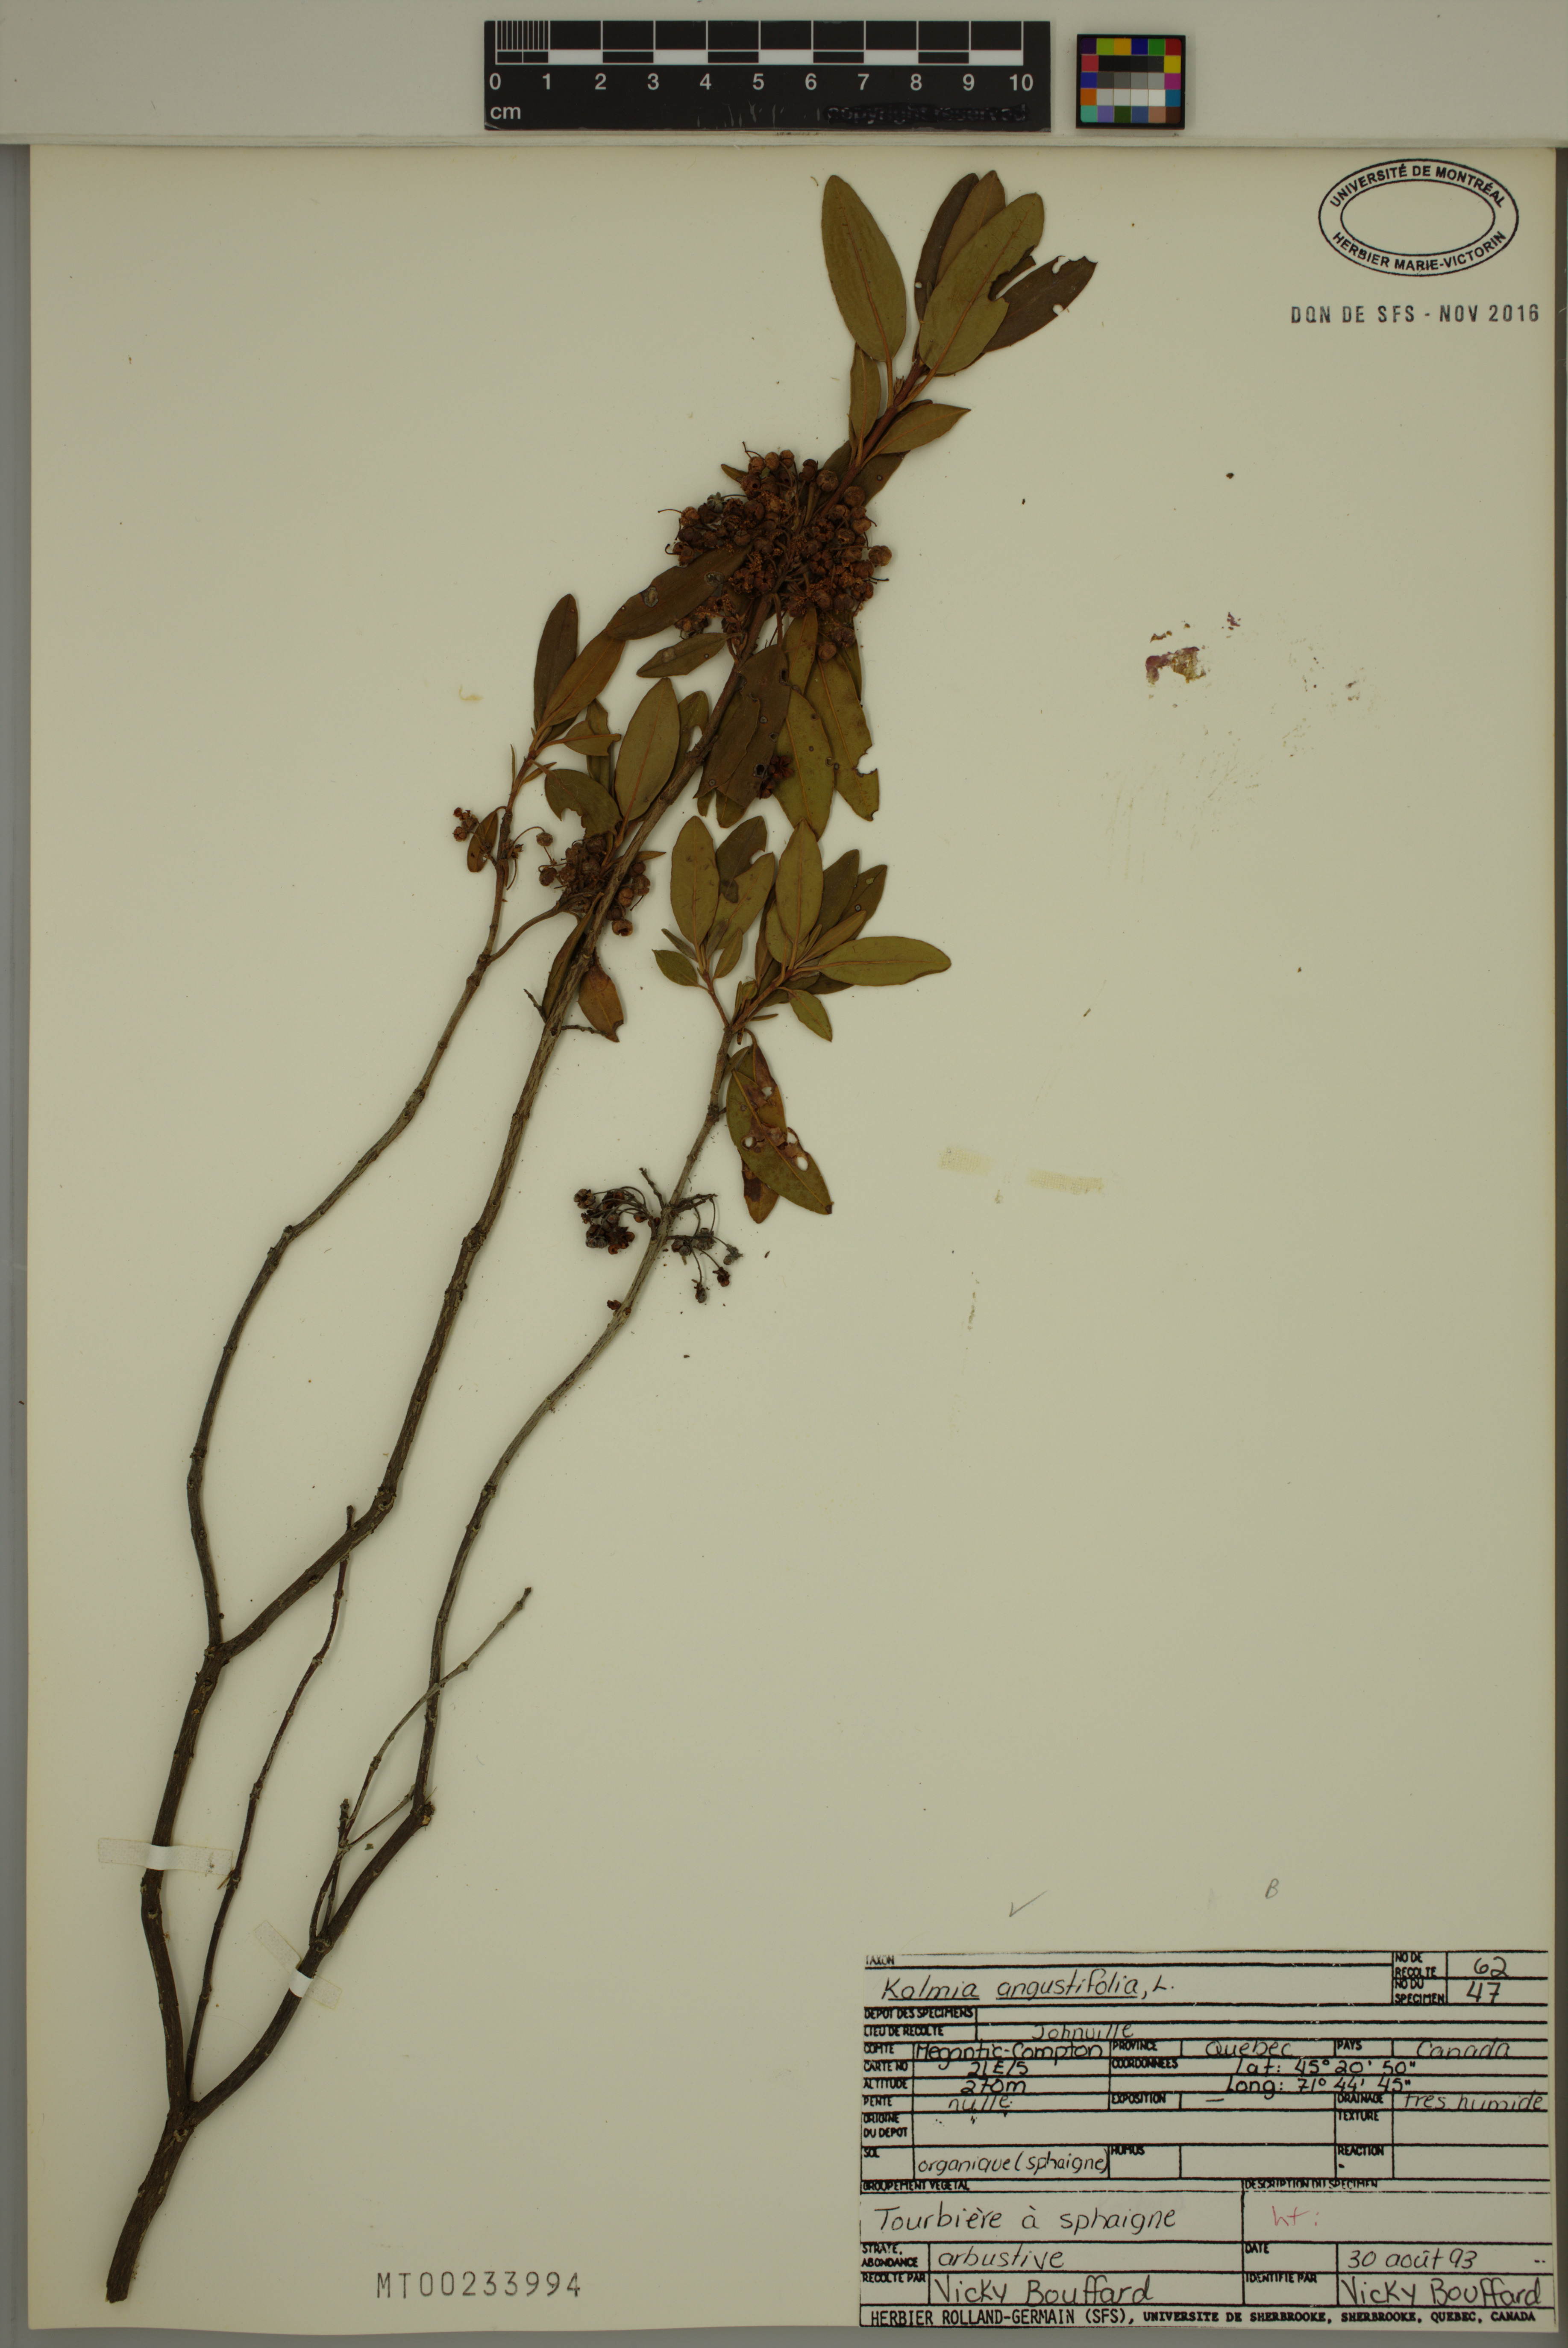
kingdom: Plantae
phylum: Tracheophyta
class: Magnoliopsida
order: Ericales
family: Ericaceae
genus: Kalmia
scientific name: Kalmia angustifolia
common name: Sheep-laurel
